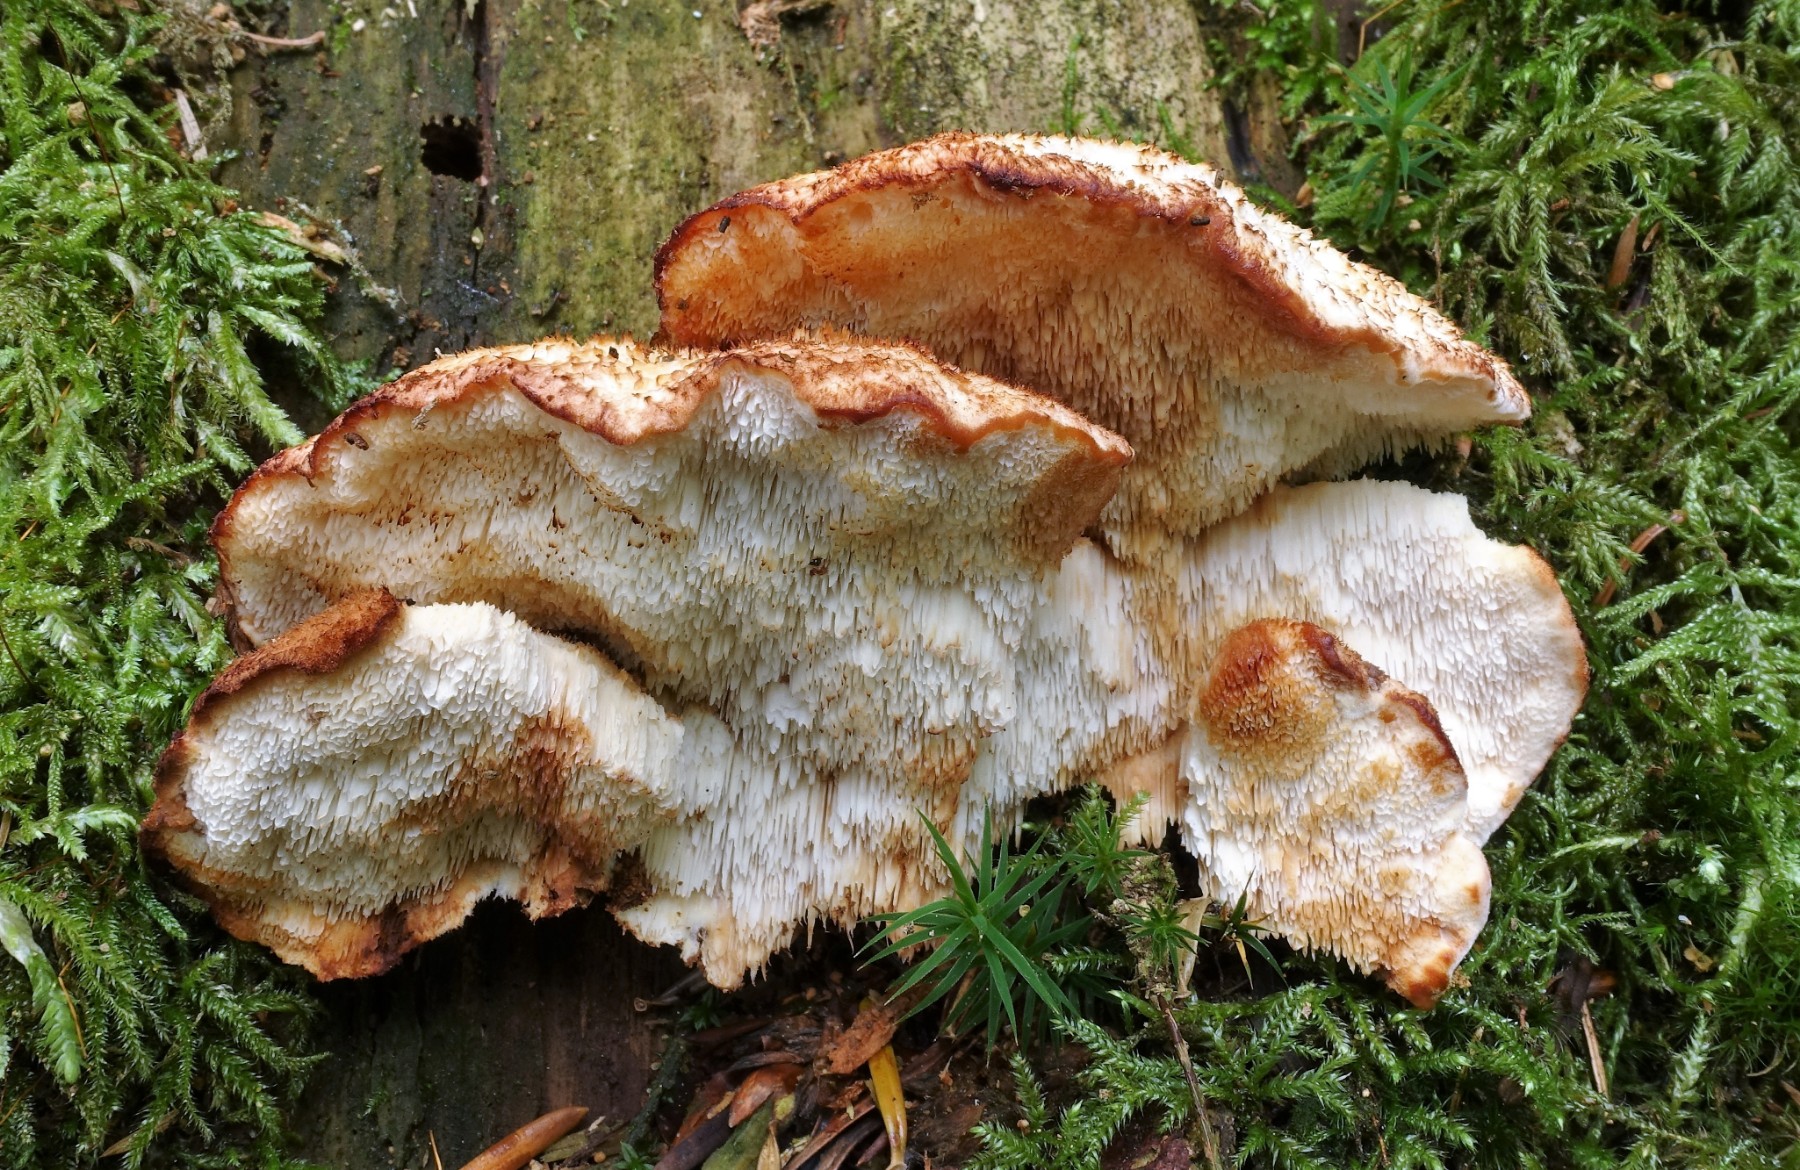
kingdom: Fungi
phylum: Basidiomycota
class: Agaricomycetes
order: Polyporales
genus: Fuscopostia
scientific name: Fuscopostia fragilis
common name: brunende kødporesvamp
